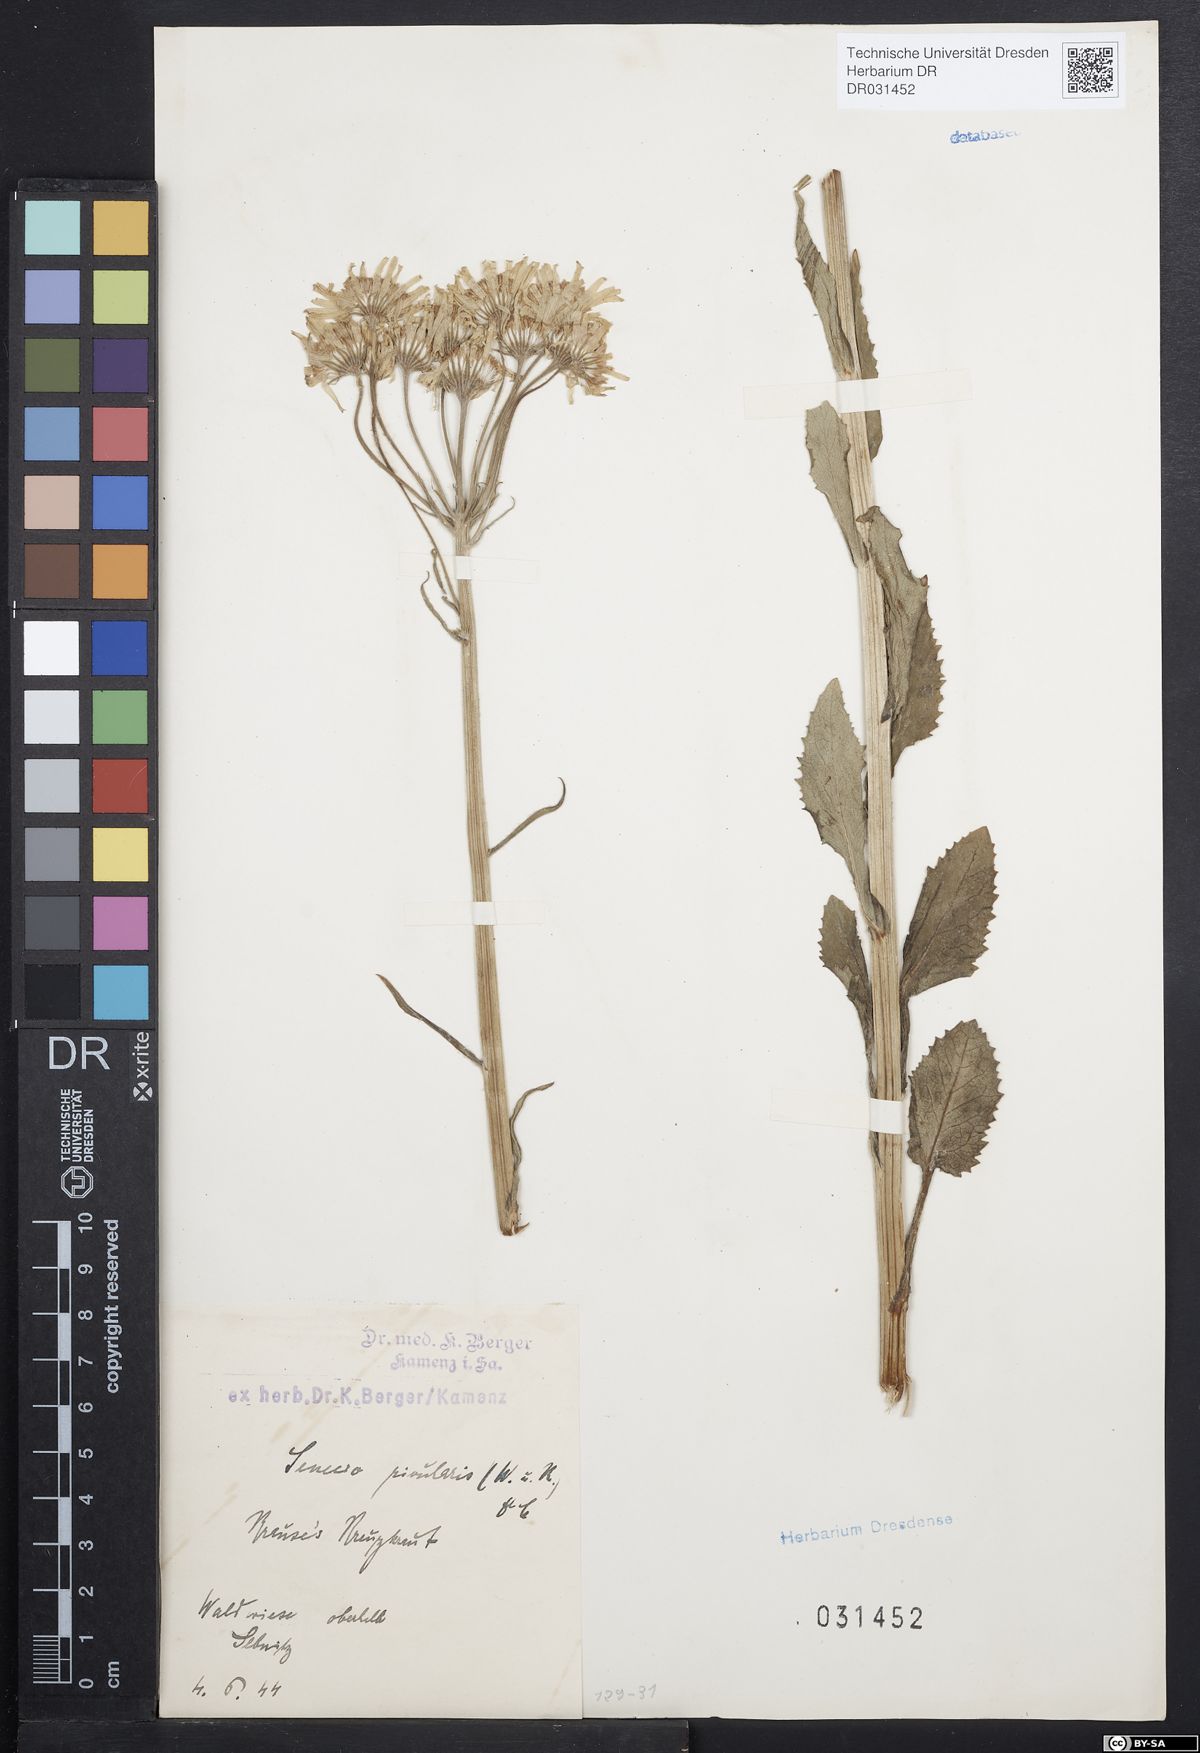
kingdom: Plantae
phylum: Tracheophyta
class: Magnoliopsida
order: Asterales
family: Asteraceae
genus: Tephroseris
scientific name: Tephroseris crispa
